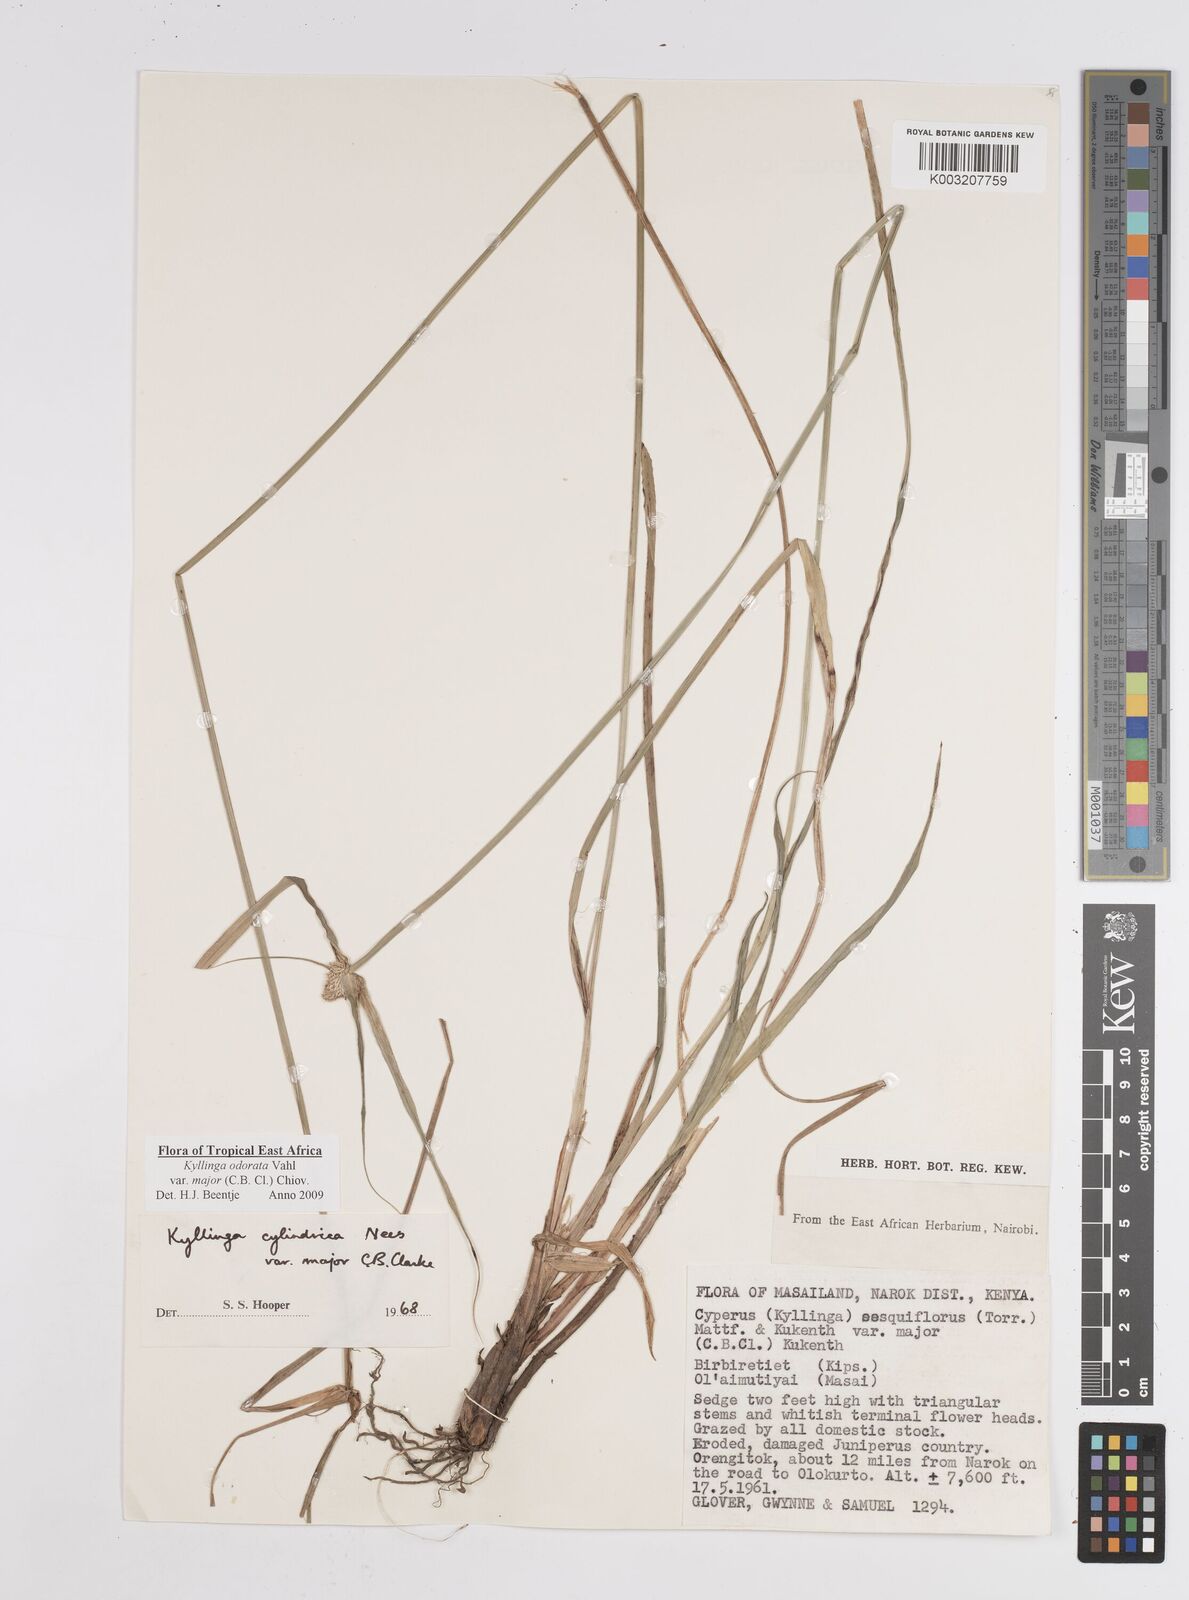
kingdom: Plantae
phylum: Tracheophyta
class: Liliopsida
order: Poales
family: Cyperaceae
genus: Cyperus
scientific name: Cyperus
